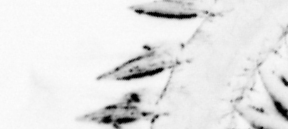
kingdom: Animalia
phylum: Annelida
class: Polychaeta
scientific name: Polychaeta
